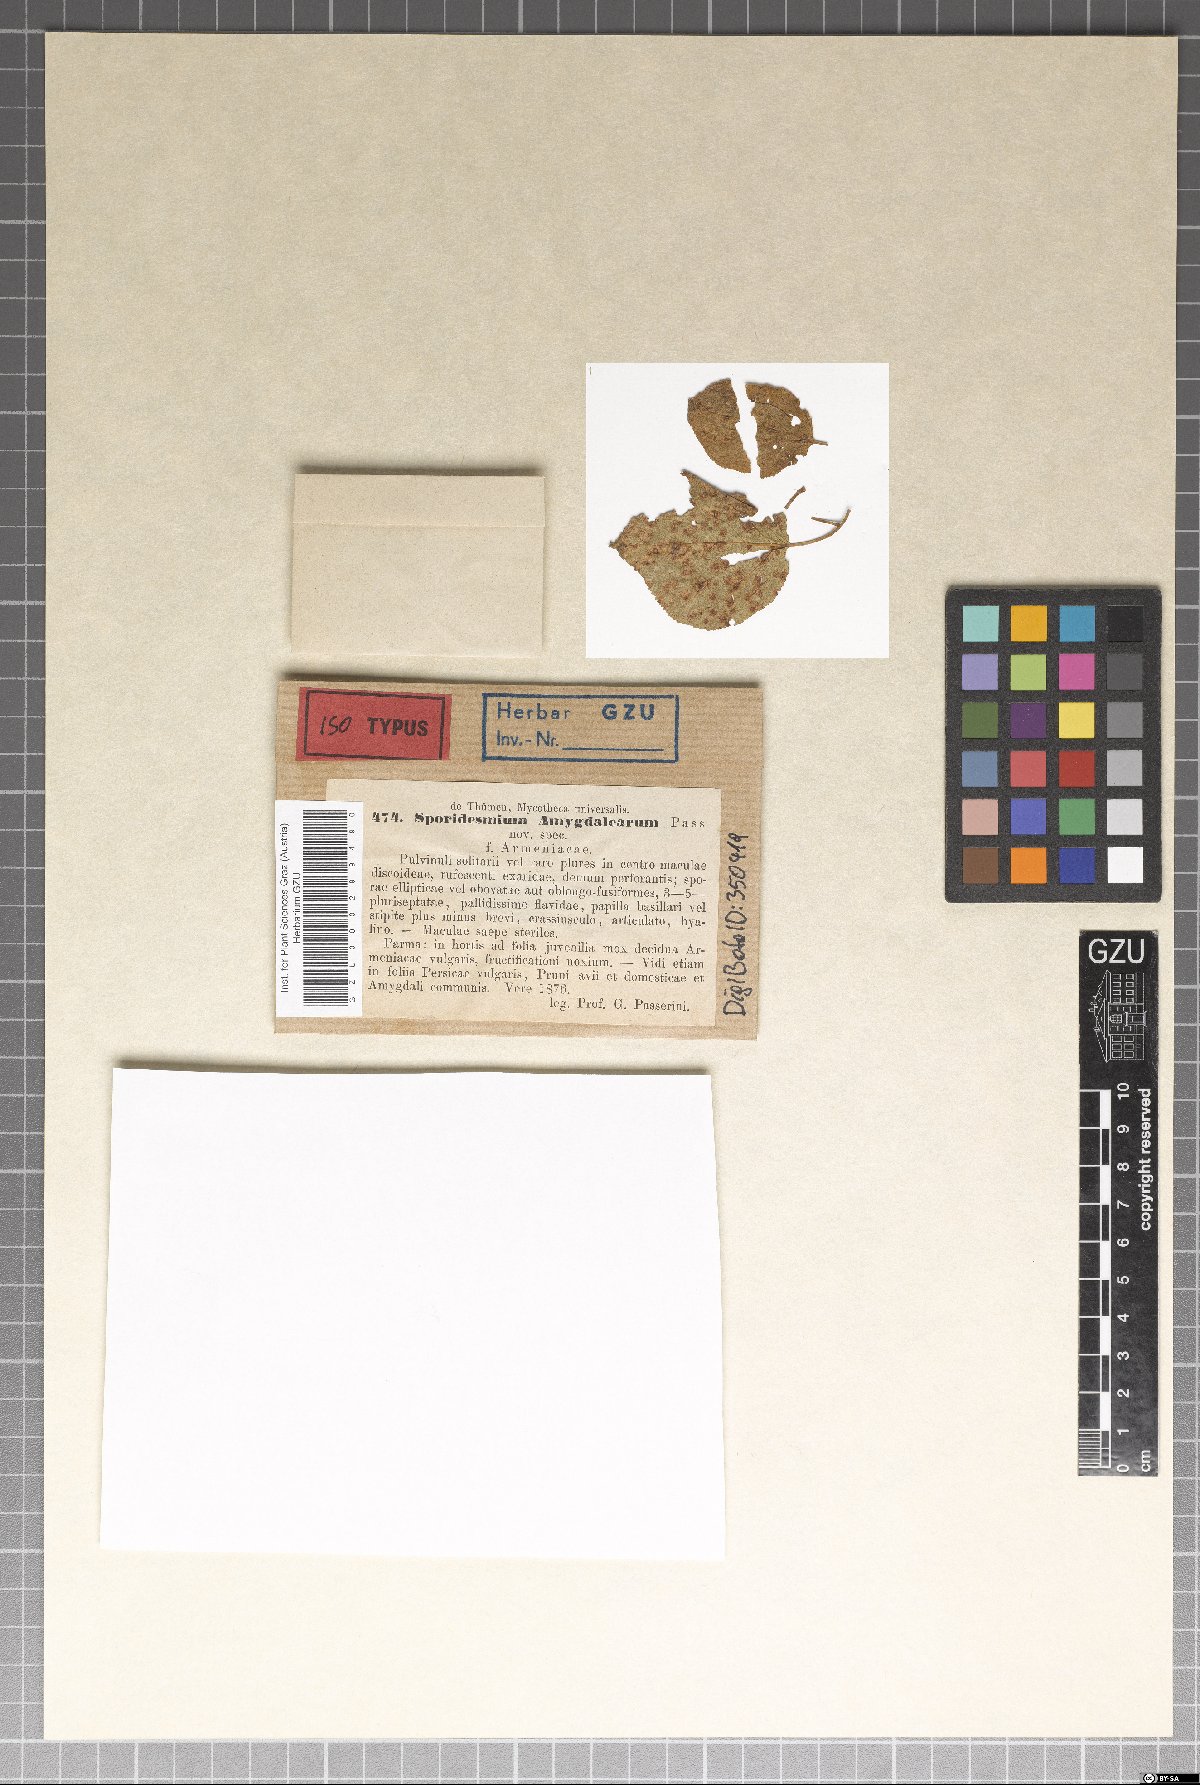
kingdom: Fungi
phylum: Ascomycota
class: Dothideomycetes
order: Mycosphaerellales
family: Mycosphaerellaceae
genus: Stigmina
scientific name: Stigmina carpophila
